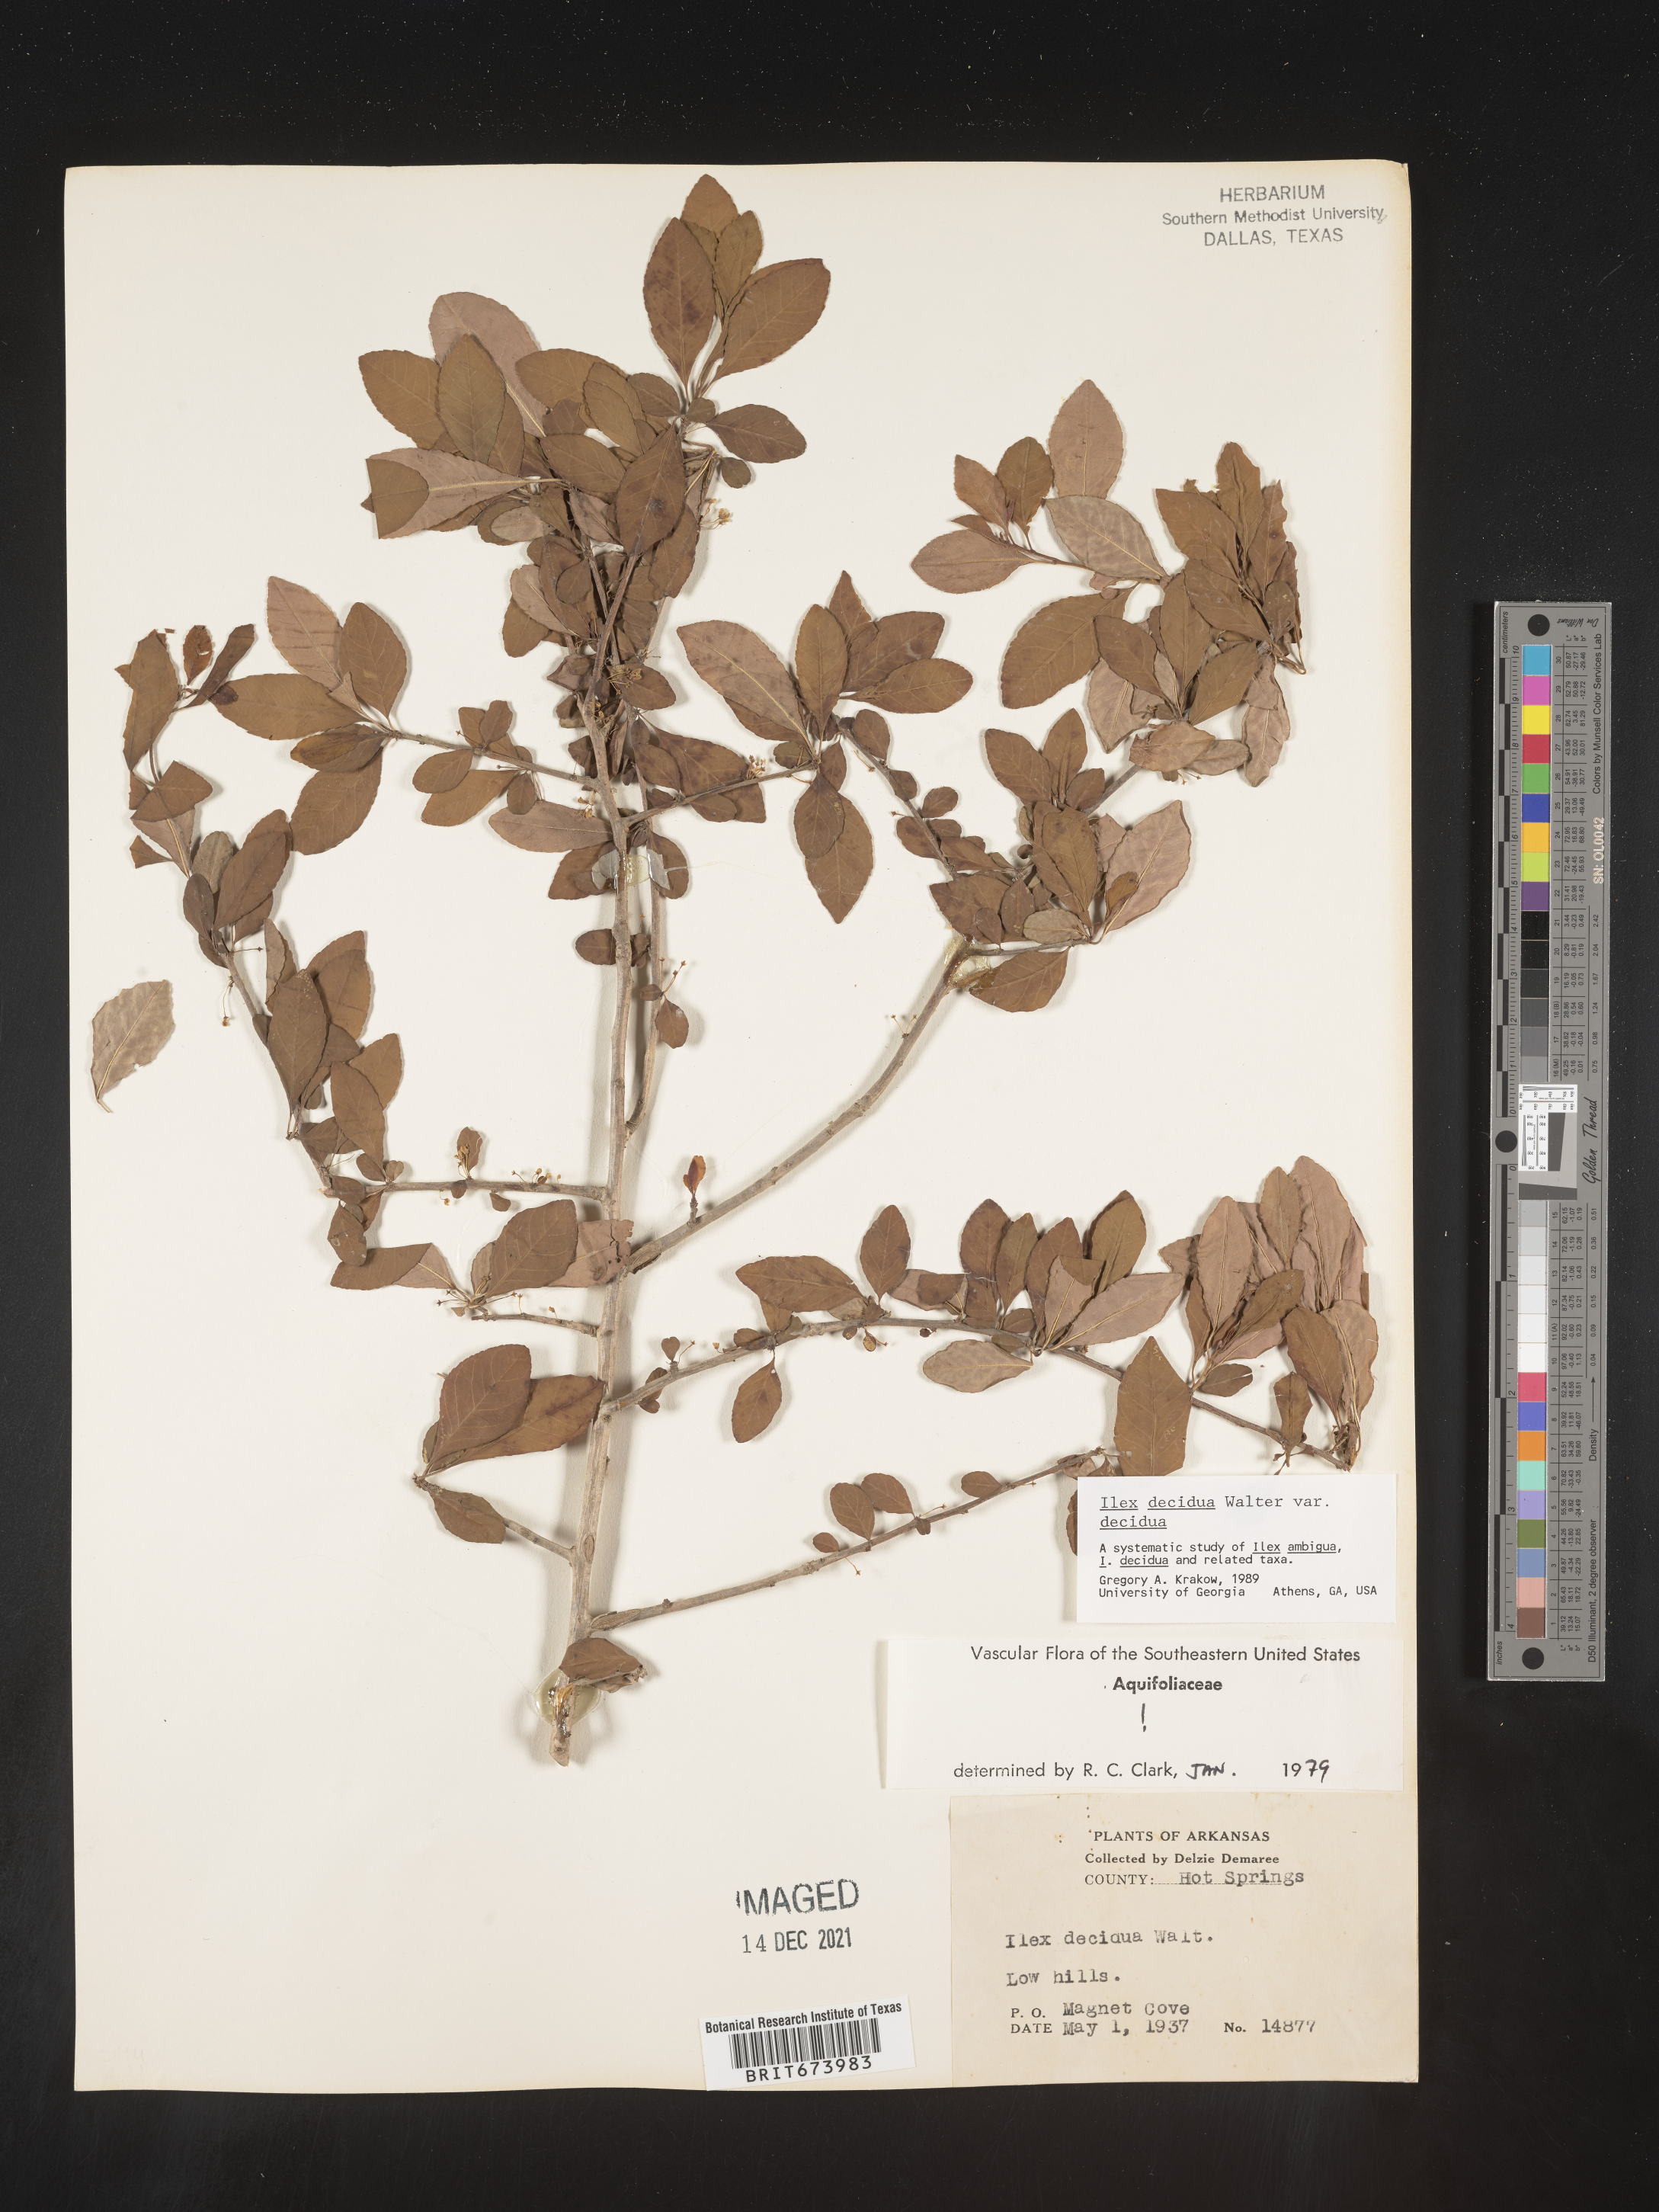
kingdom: Plantae
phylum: Tracheophyta
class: Magnoliopsida
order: Aquifoliales
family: Aquifoliaceae
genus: Ilex
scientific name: Ilex decidua
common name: Possum-haw
